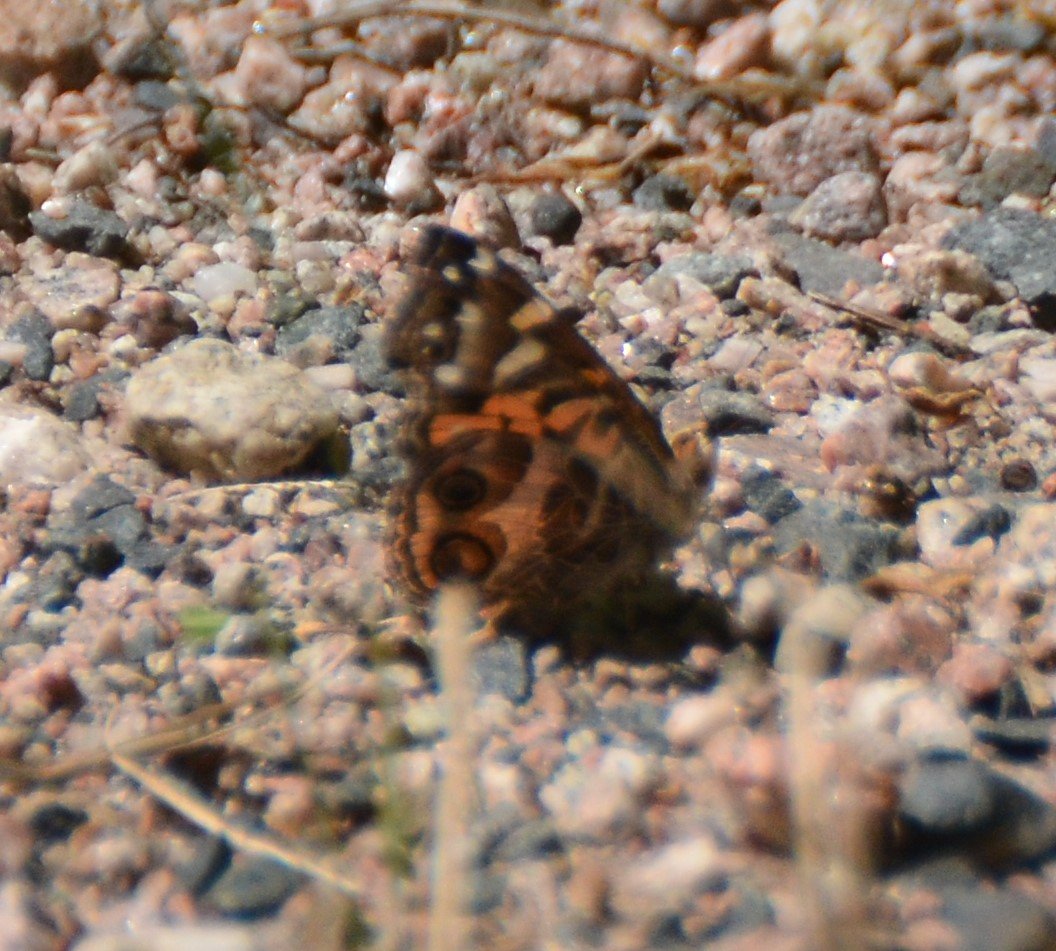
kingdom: Animalia
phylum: Arthropoda
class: Insecta
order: Lepidoptera
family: Nymphalidae
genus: Vanessa
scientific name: Vanessa virginiensis
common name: American Lady
